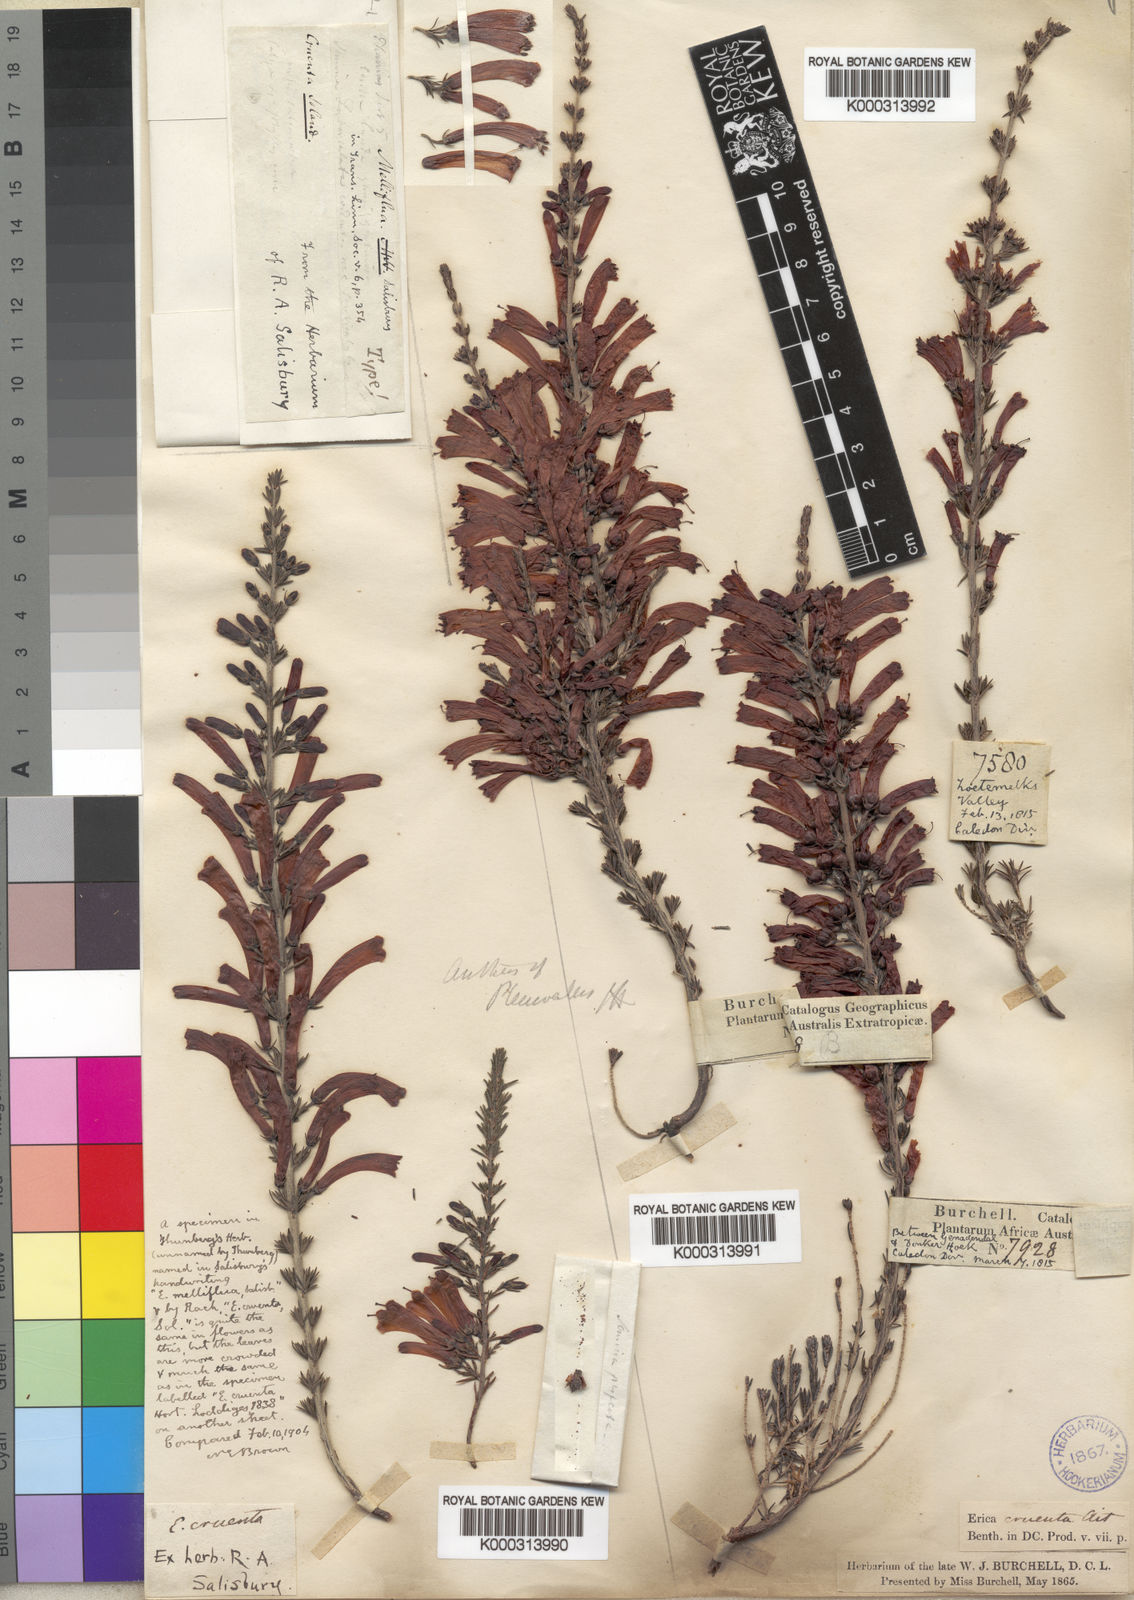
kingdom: Plantae
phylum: Tracheophyta
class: Magnoliopsida
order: Ericales
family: Ericaceae
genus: Erica
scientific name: Erica
